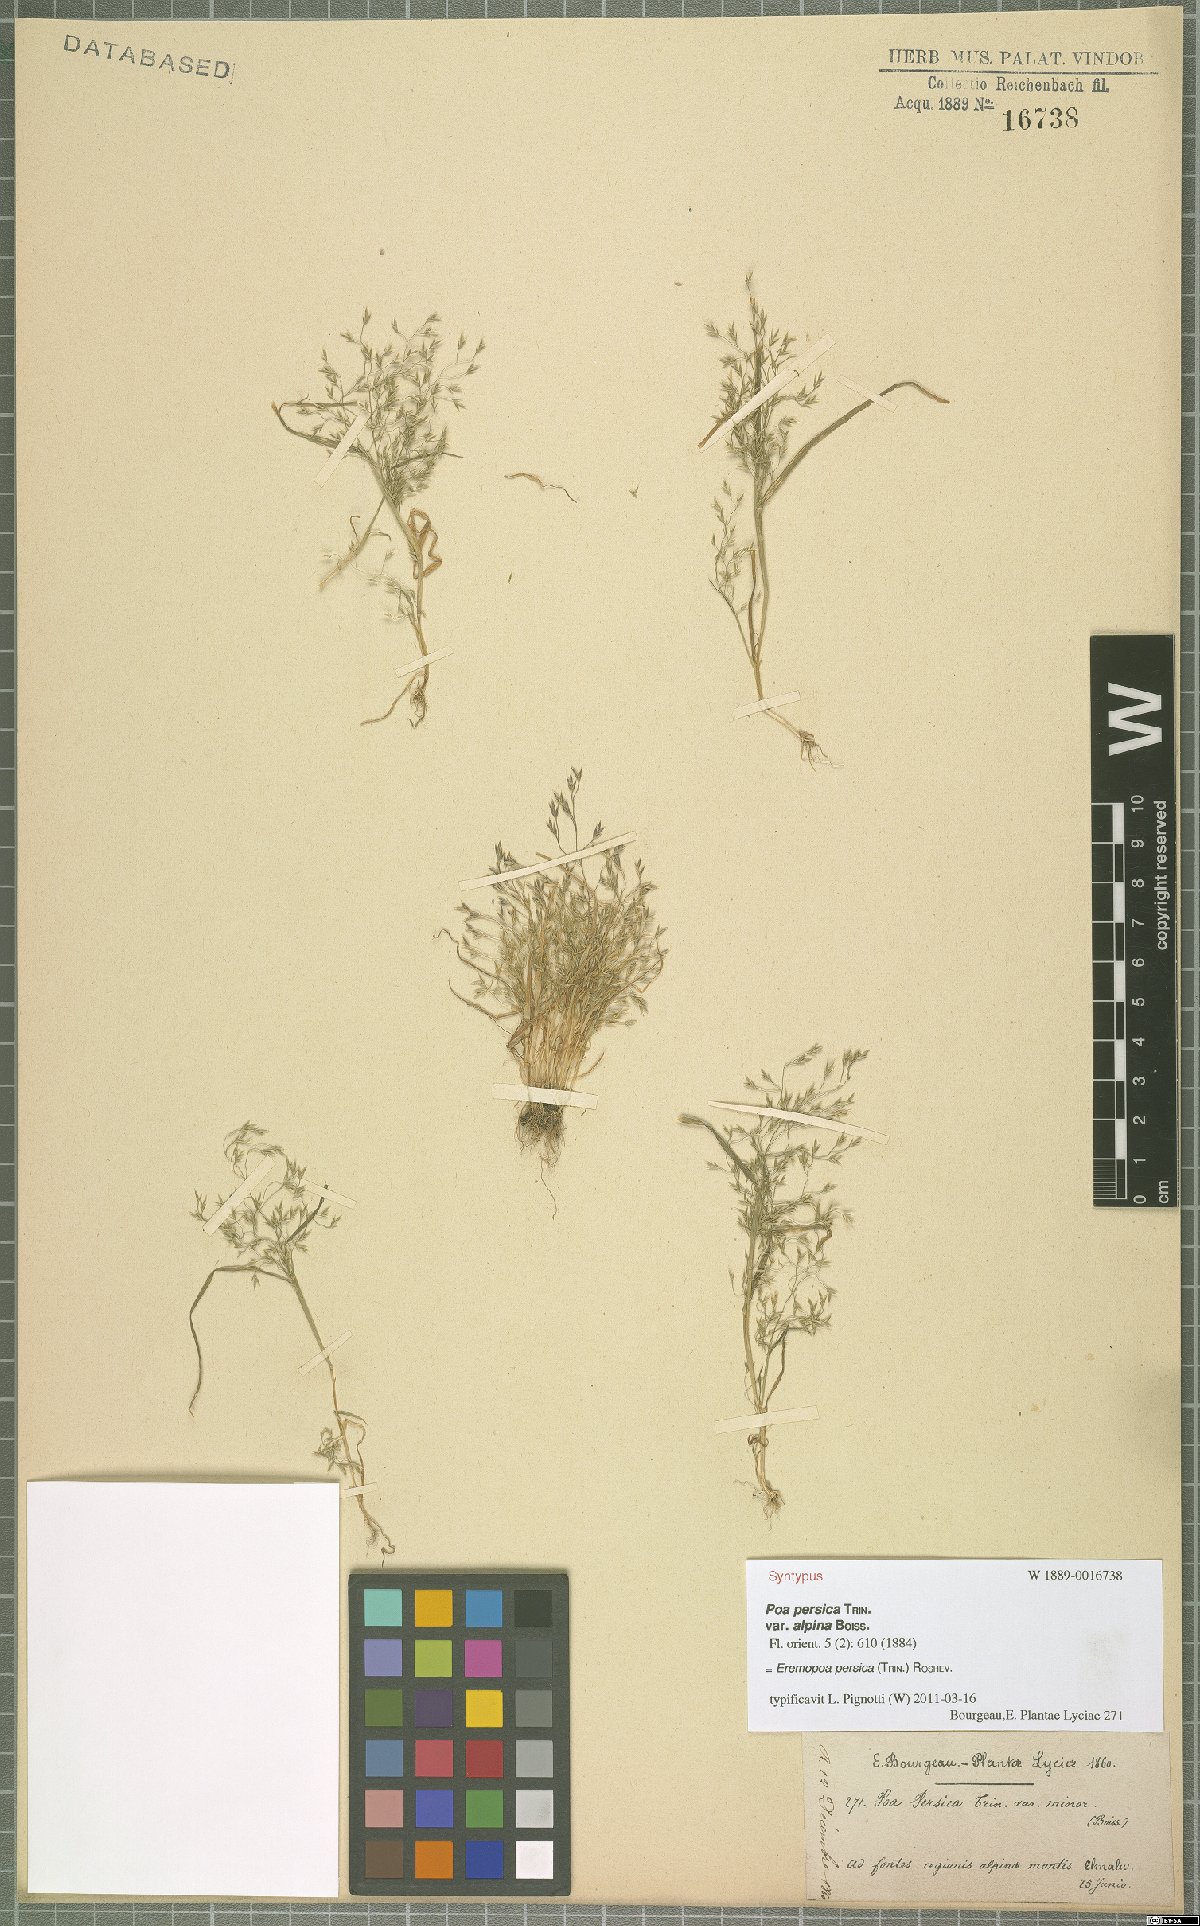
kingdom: Plantae
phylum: Tracheophyta
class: Liliopsida
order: Poales
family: Poaceae
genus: Poa
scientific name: Poa persica
